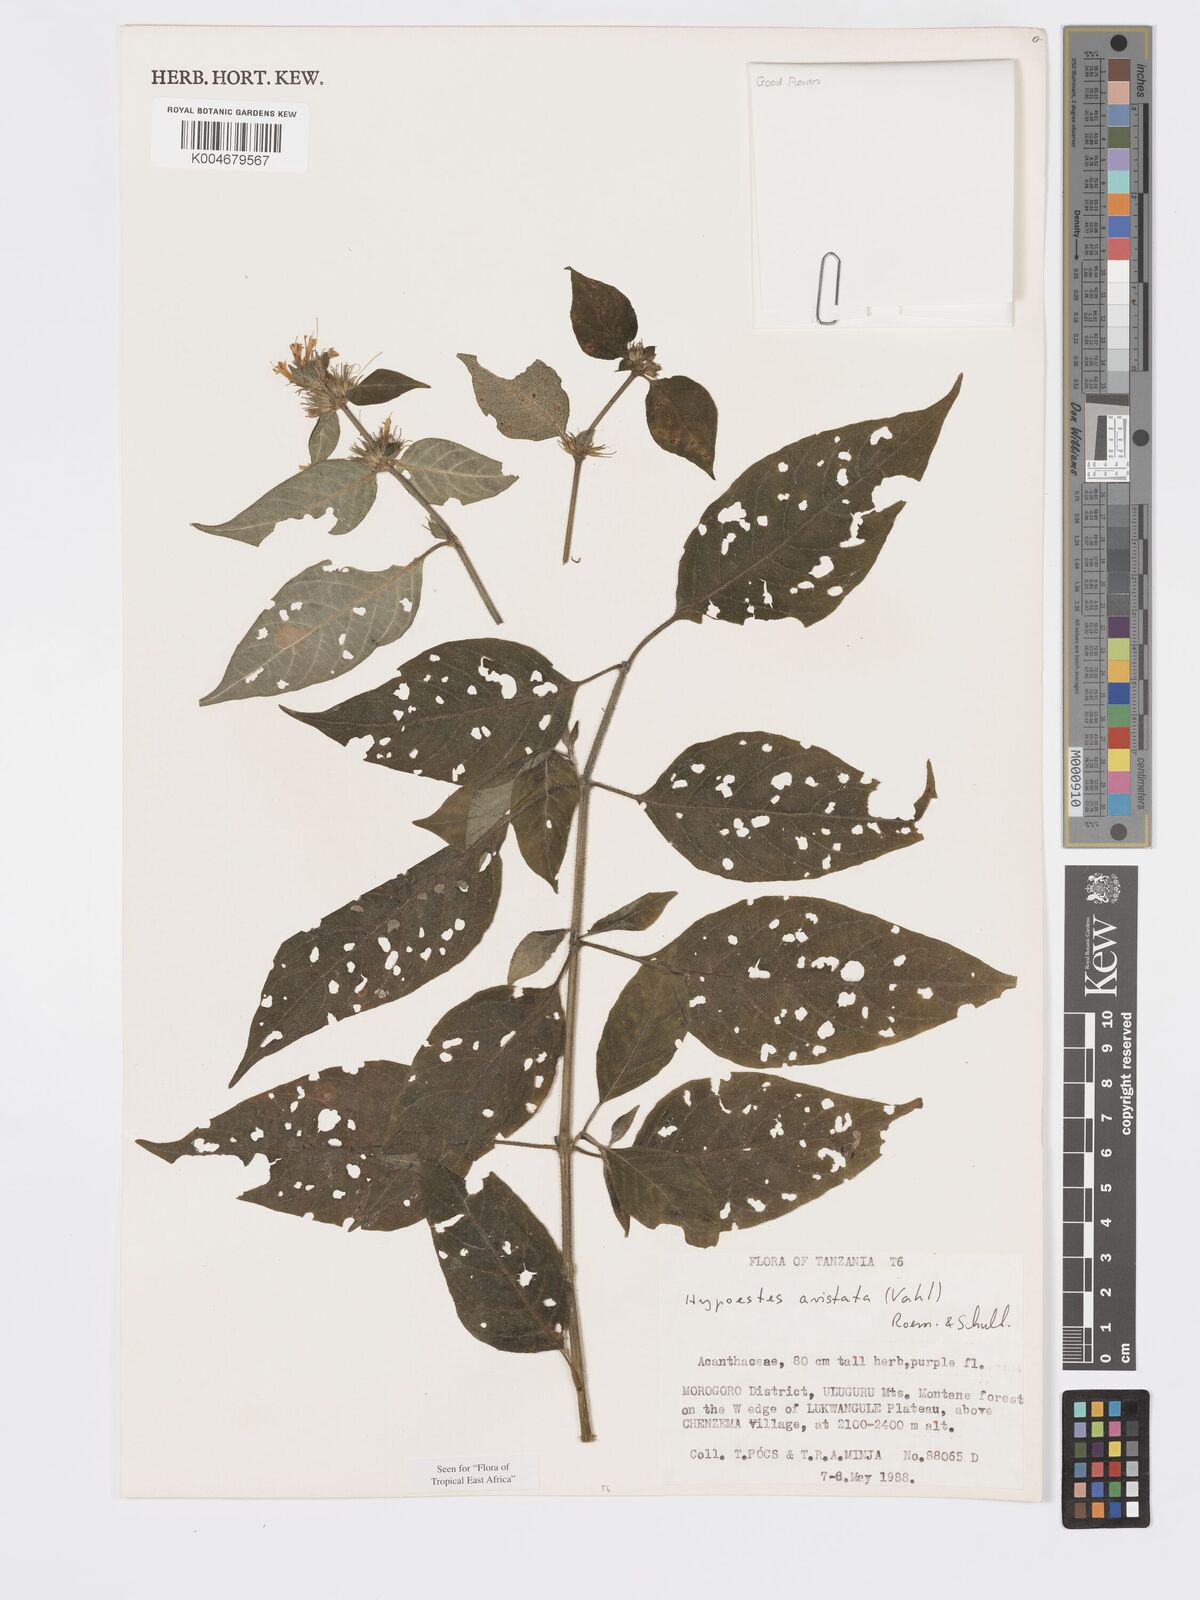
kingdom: Plantae
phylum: Tracheophyta
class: Magnoliopsida
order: Lamiales
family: Acanthaceae
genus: Hypoestes
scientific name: Hypoestes aristata
